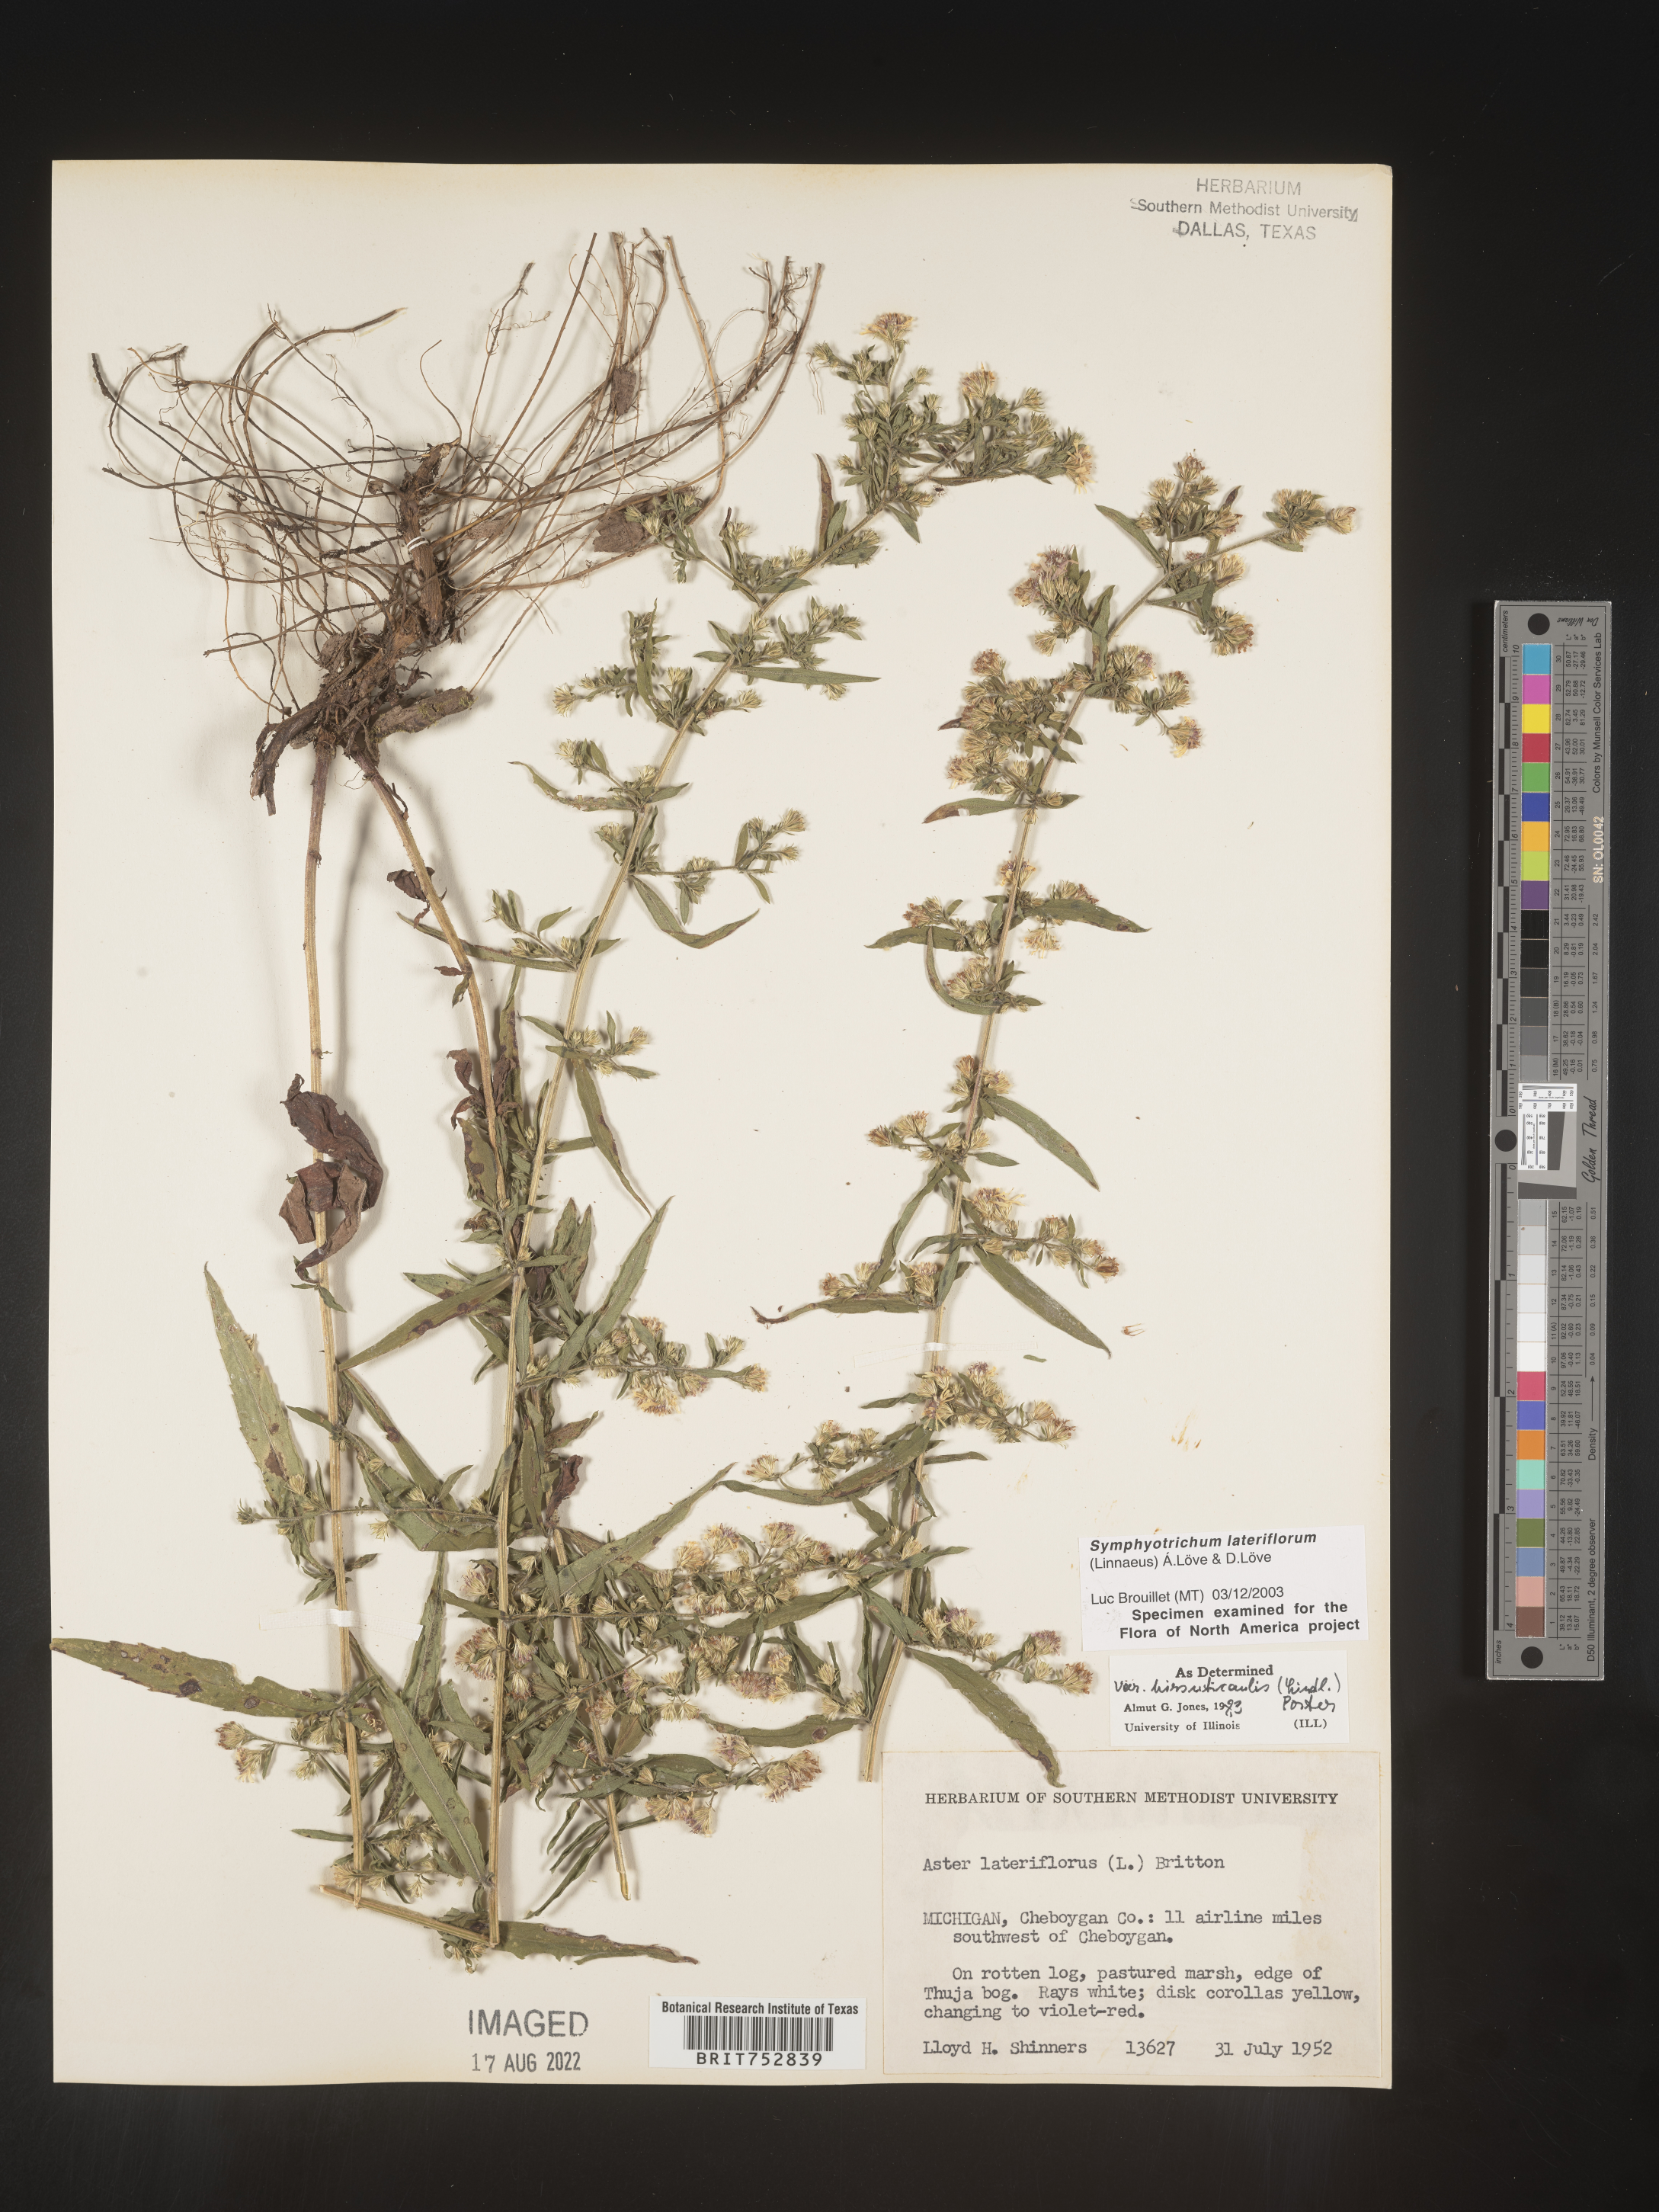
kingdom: Plantae
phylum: Tracheophyta
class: Magnoliopsida
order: Asterales
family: Asteraceae
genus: Symphyotrichum
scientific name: Symphyotrichum lateriflorum
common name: Calico aster
